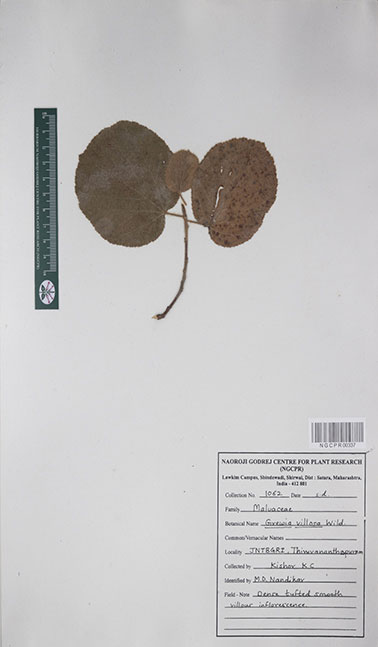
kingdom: Plantae
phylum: Tracheophyta
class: Magnoliopsida
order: Malvales
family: Malvaceae
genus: Grewia
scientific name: Grewia villosa
